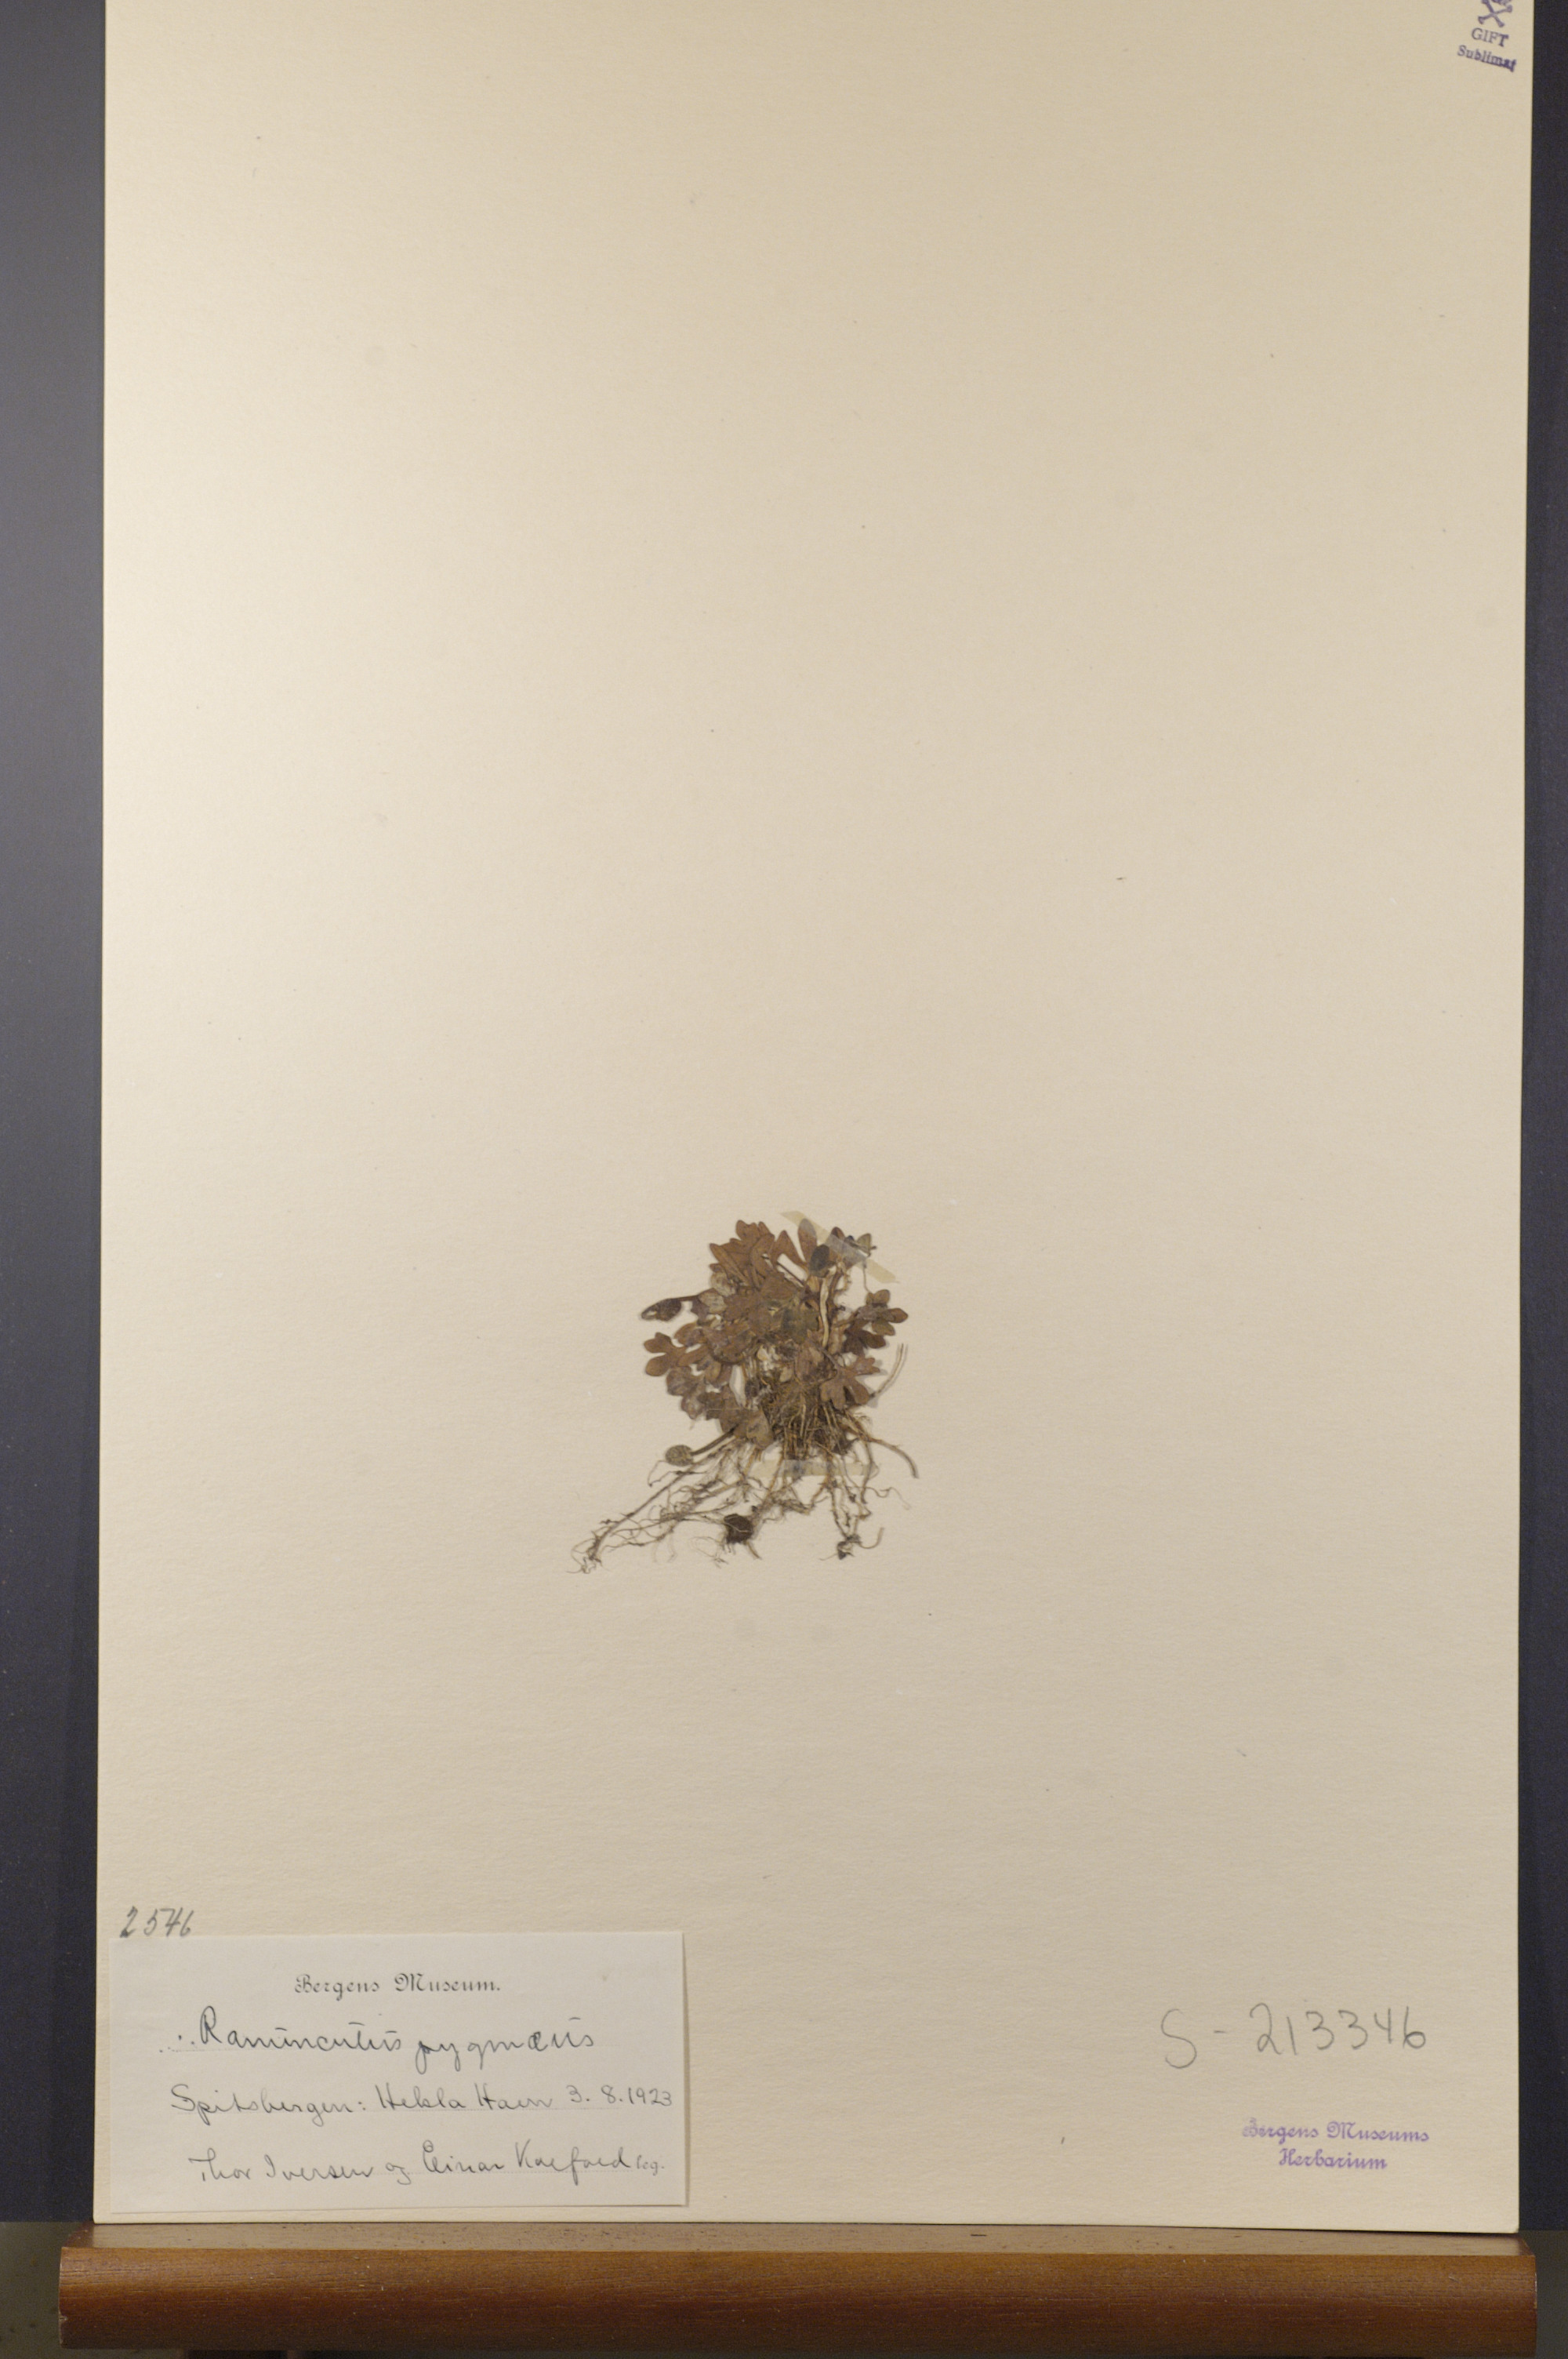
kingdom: Plantae
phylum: Tracheophyta
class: Magnoliopsida
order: Ranunculales
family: Ranunculaceae
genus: Ranunculus
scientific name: Ranunculus pygmaeus
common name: Dwarf buttercup
